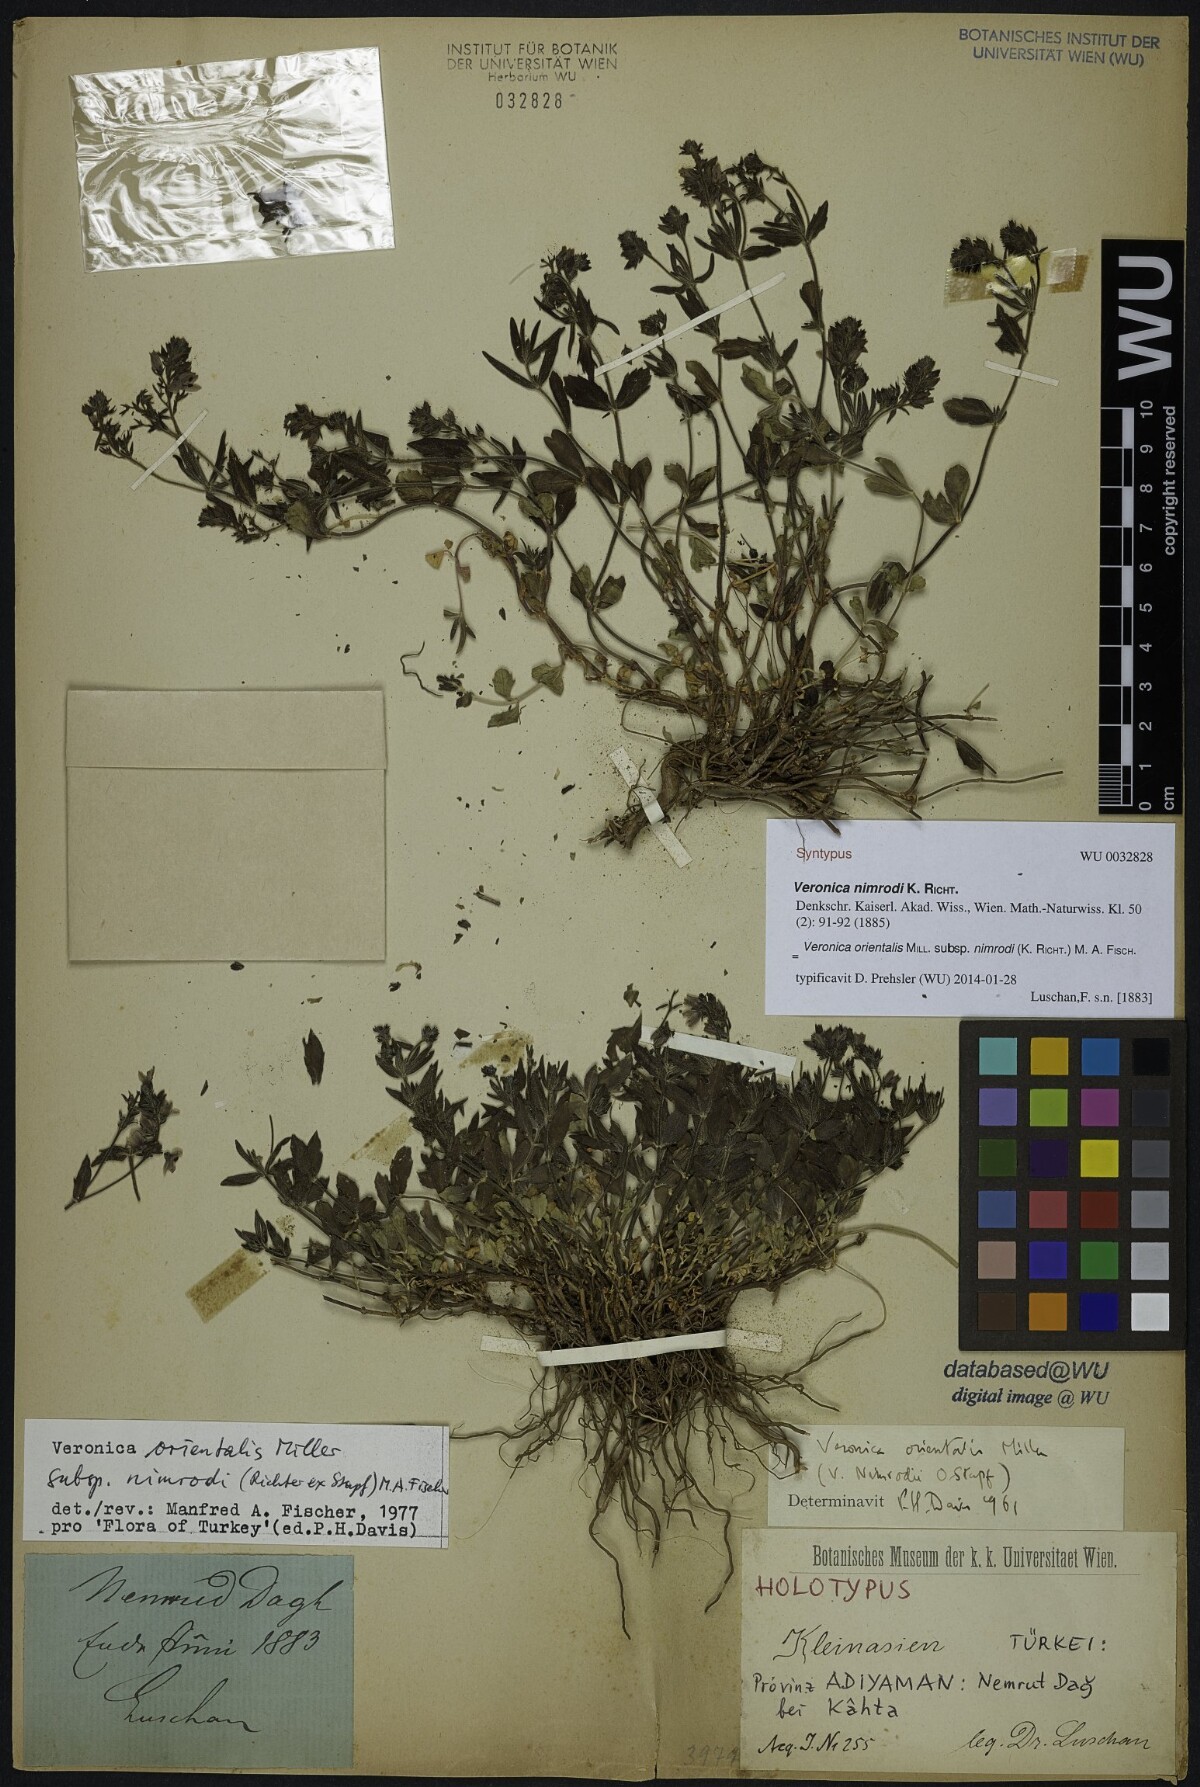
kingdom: Plantae
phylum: Tracheophyta
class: Magnoliopsida
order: Lamiales
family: Plantaginaceae
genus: Veronica
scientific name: Veronica orientalis
